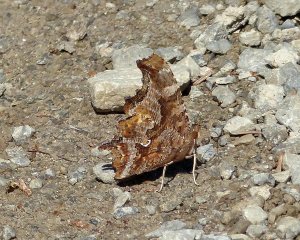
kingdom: Animalia
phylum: Arthropoda
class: Insecta
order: Lepidoptera
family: Nymphalidae
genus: Polygonia
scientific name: Polygonia comma
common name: Eastern Comma
